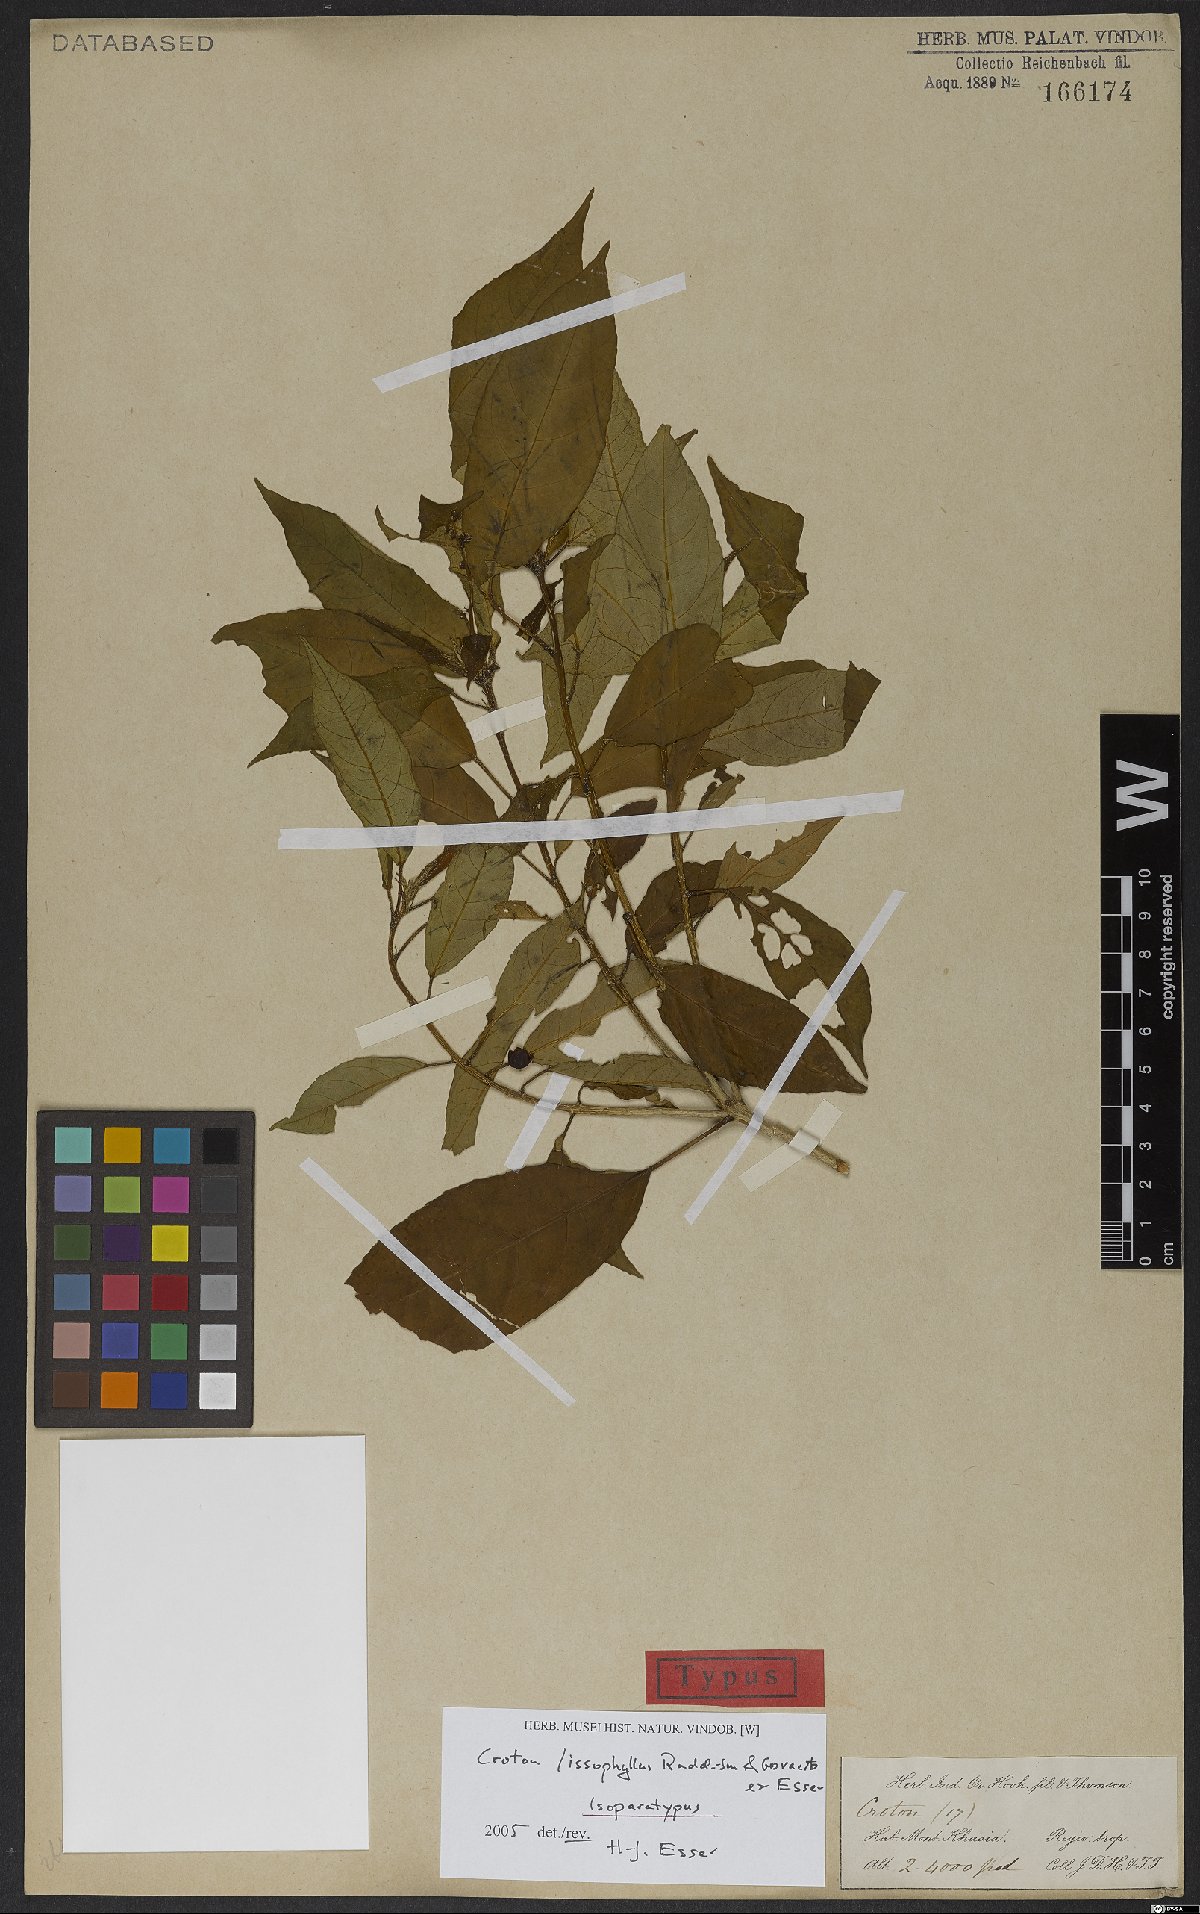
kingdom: Plantae
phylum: Tracheophyta
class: Magnoliopsida
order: Malpighiales
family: Euphorbiaceae
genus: Croton
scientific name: Croton lissophyllus
